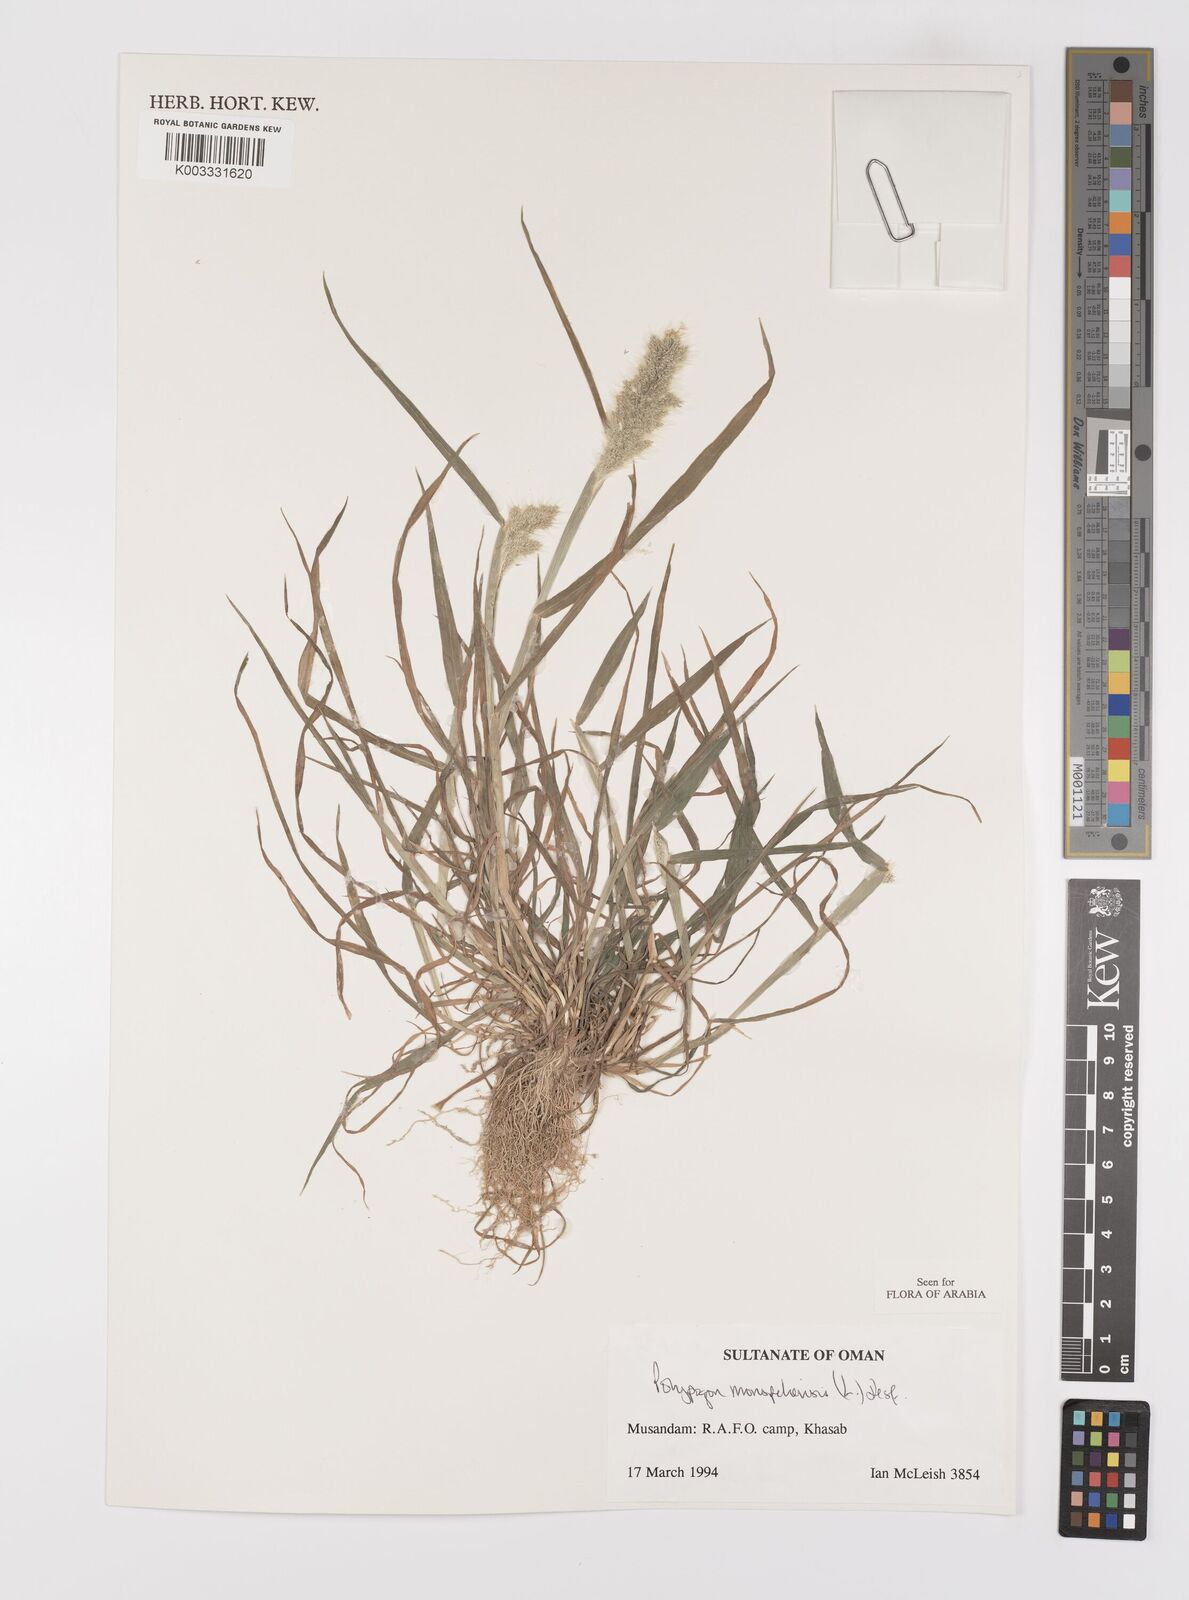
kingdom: Plantae
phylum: Tracheophyta
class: Liliopsida
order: Poales
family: Poaceae
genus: Polypogon
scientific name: Polypogon monspeliensis
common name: Annual rabbitsfoot grass
